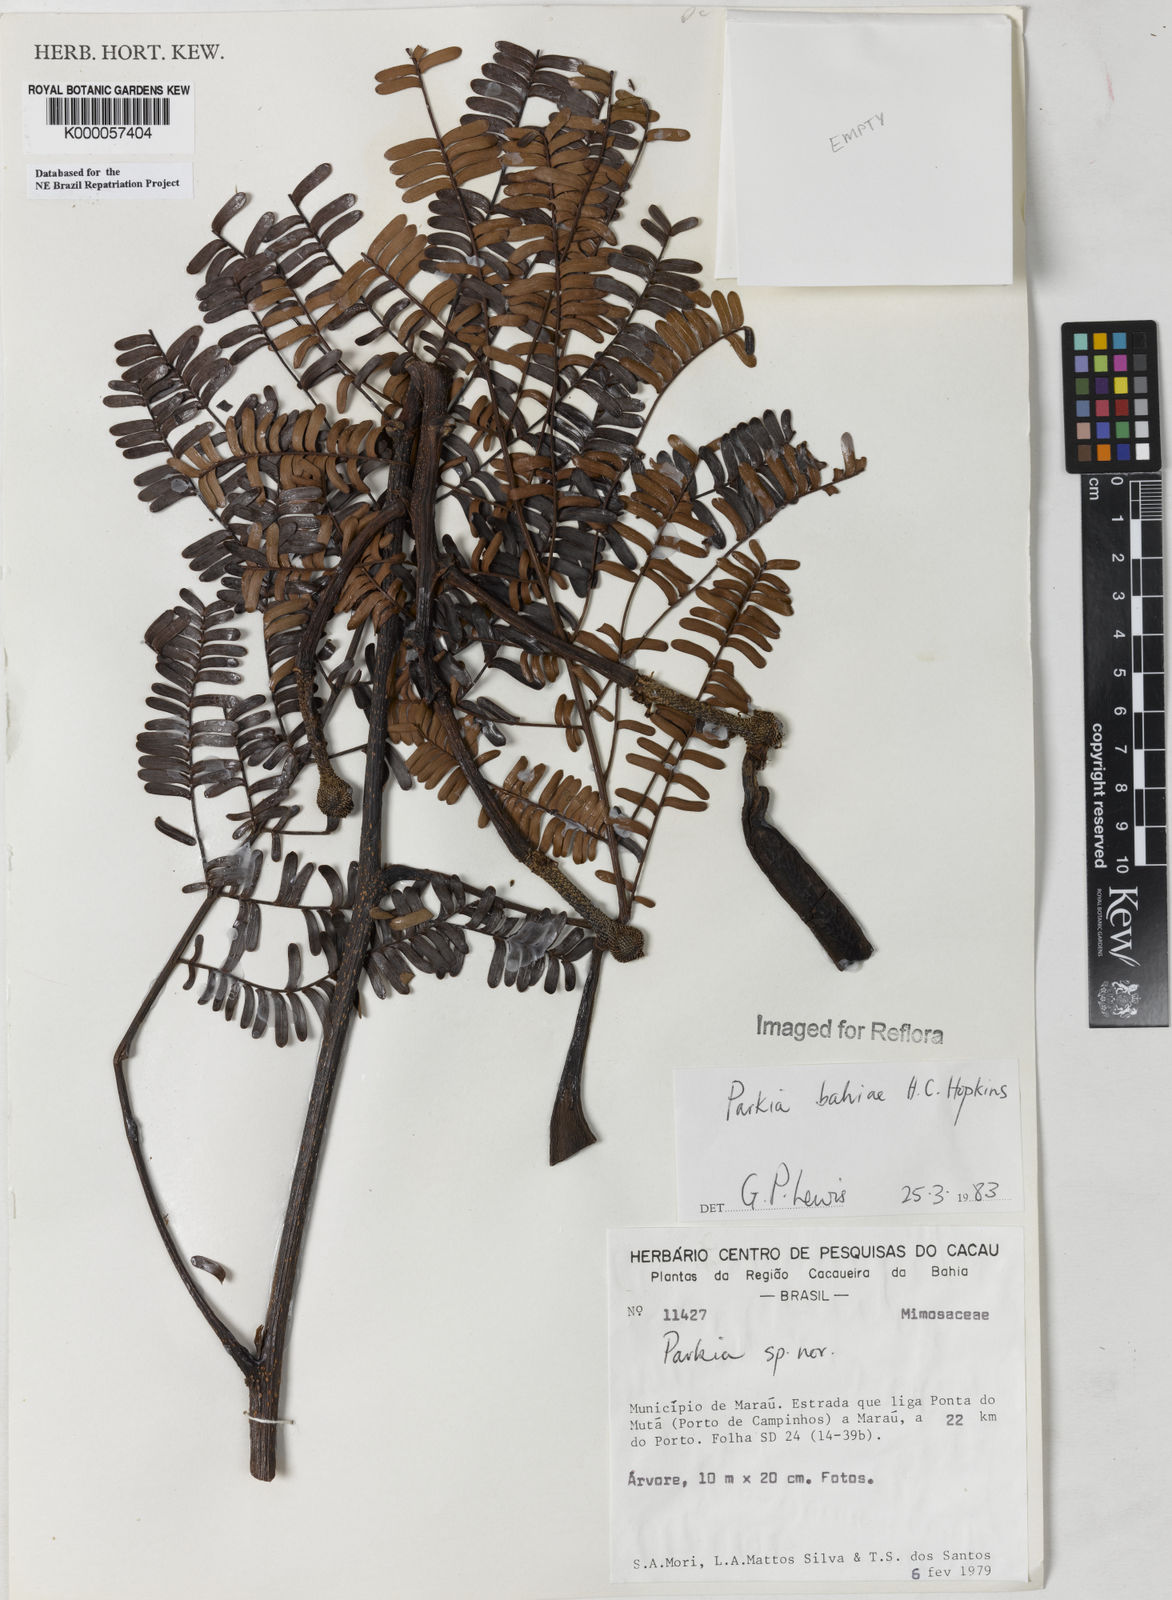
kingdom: Plantae
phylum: Tracheophyta
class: Magnoliopsida
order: Fabales
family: Fabaceae
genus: Parkia
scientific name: Parkia bahiae
